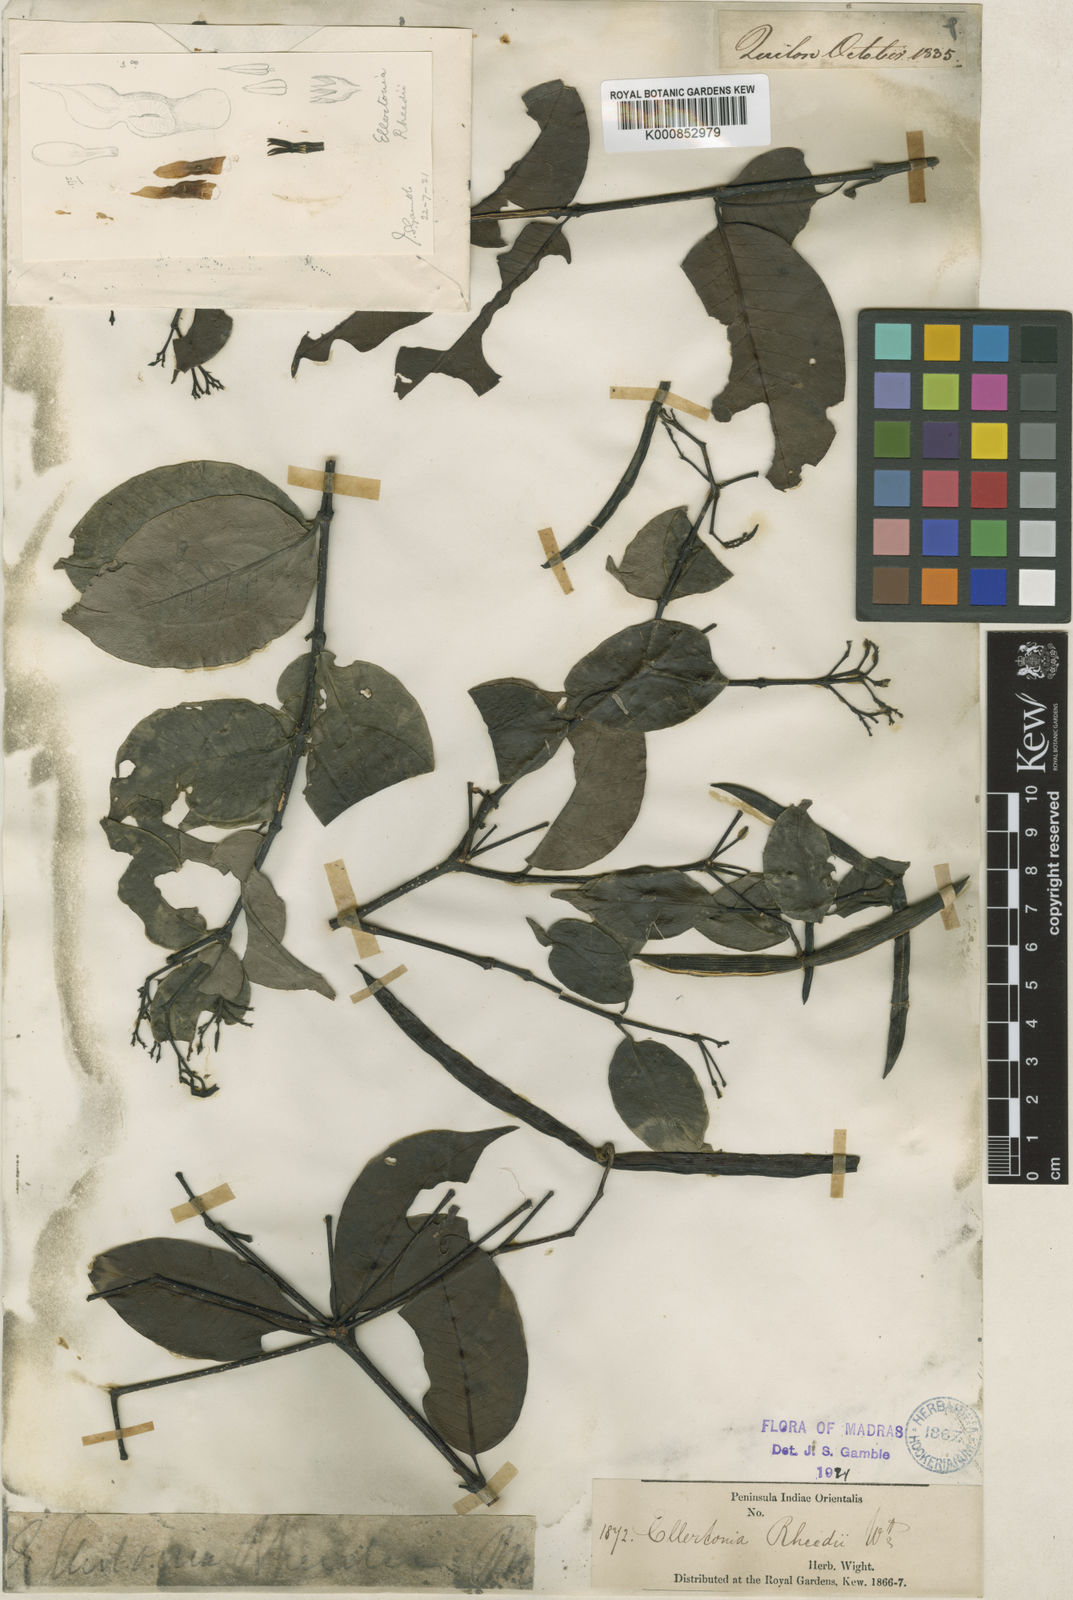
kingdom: Plantae
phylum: Tracheophyta
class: Magnoliopsida
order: Gentianales
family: Apocynaceae
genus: Kamettia
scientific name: Kamettia caryophyllata
